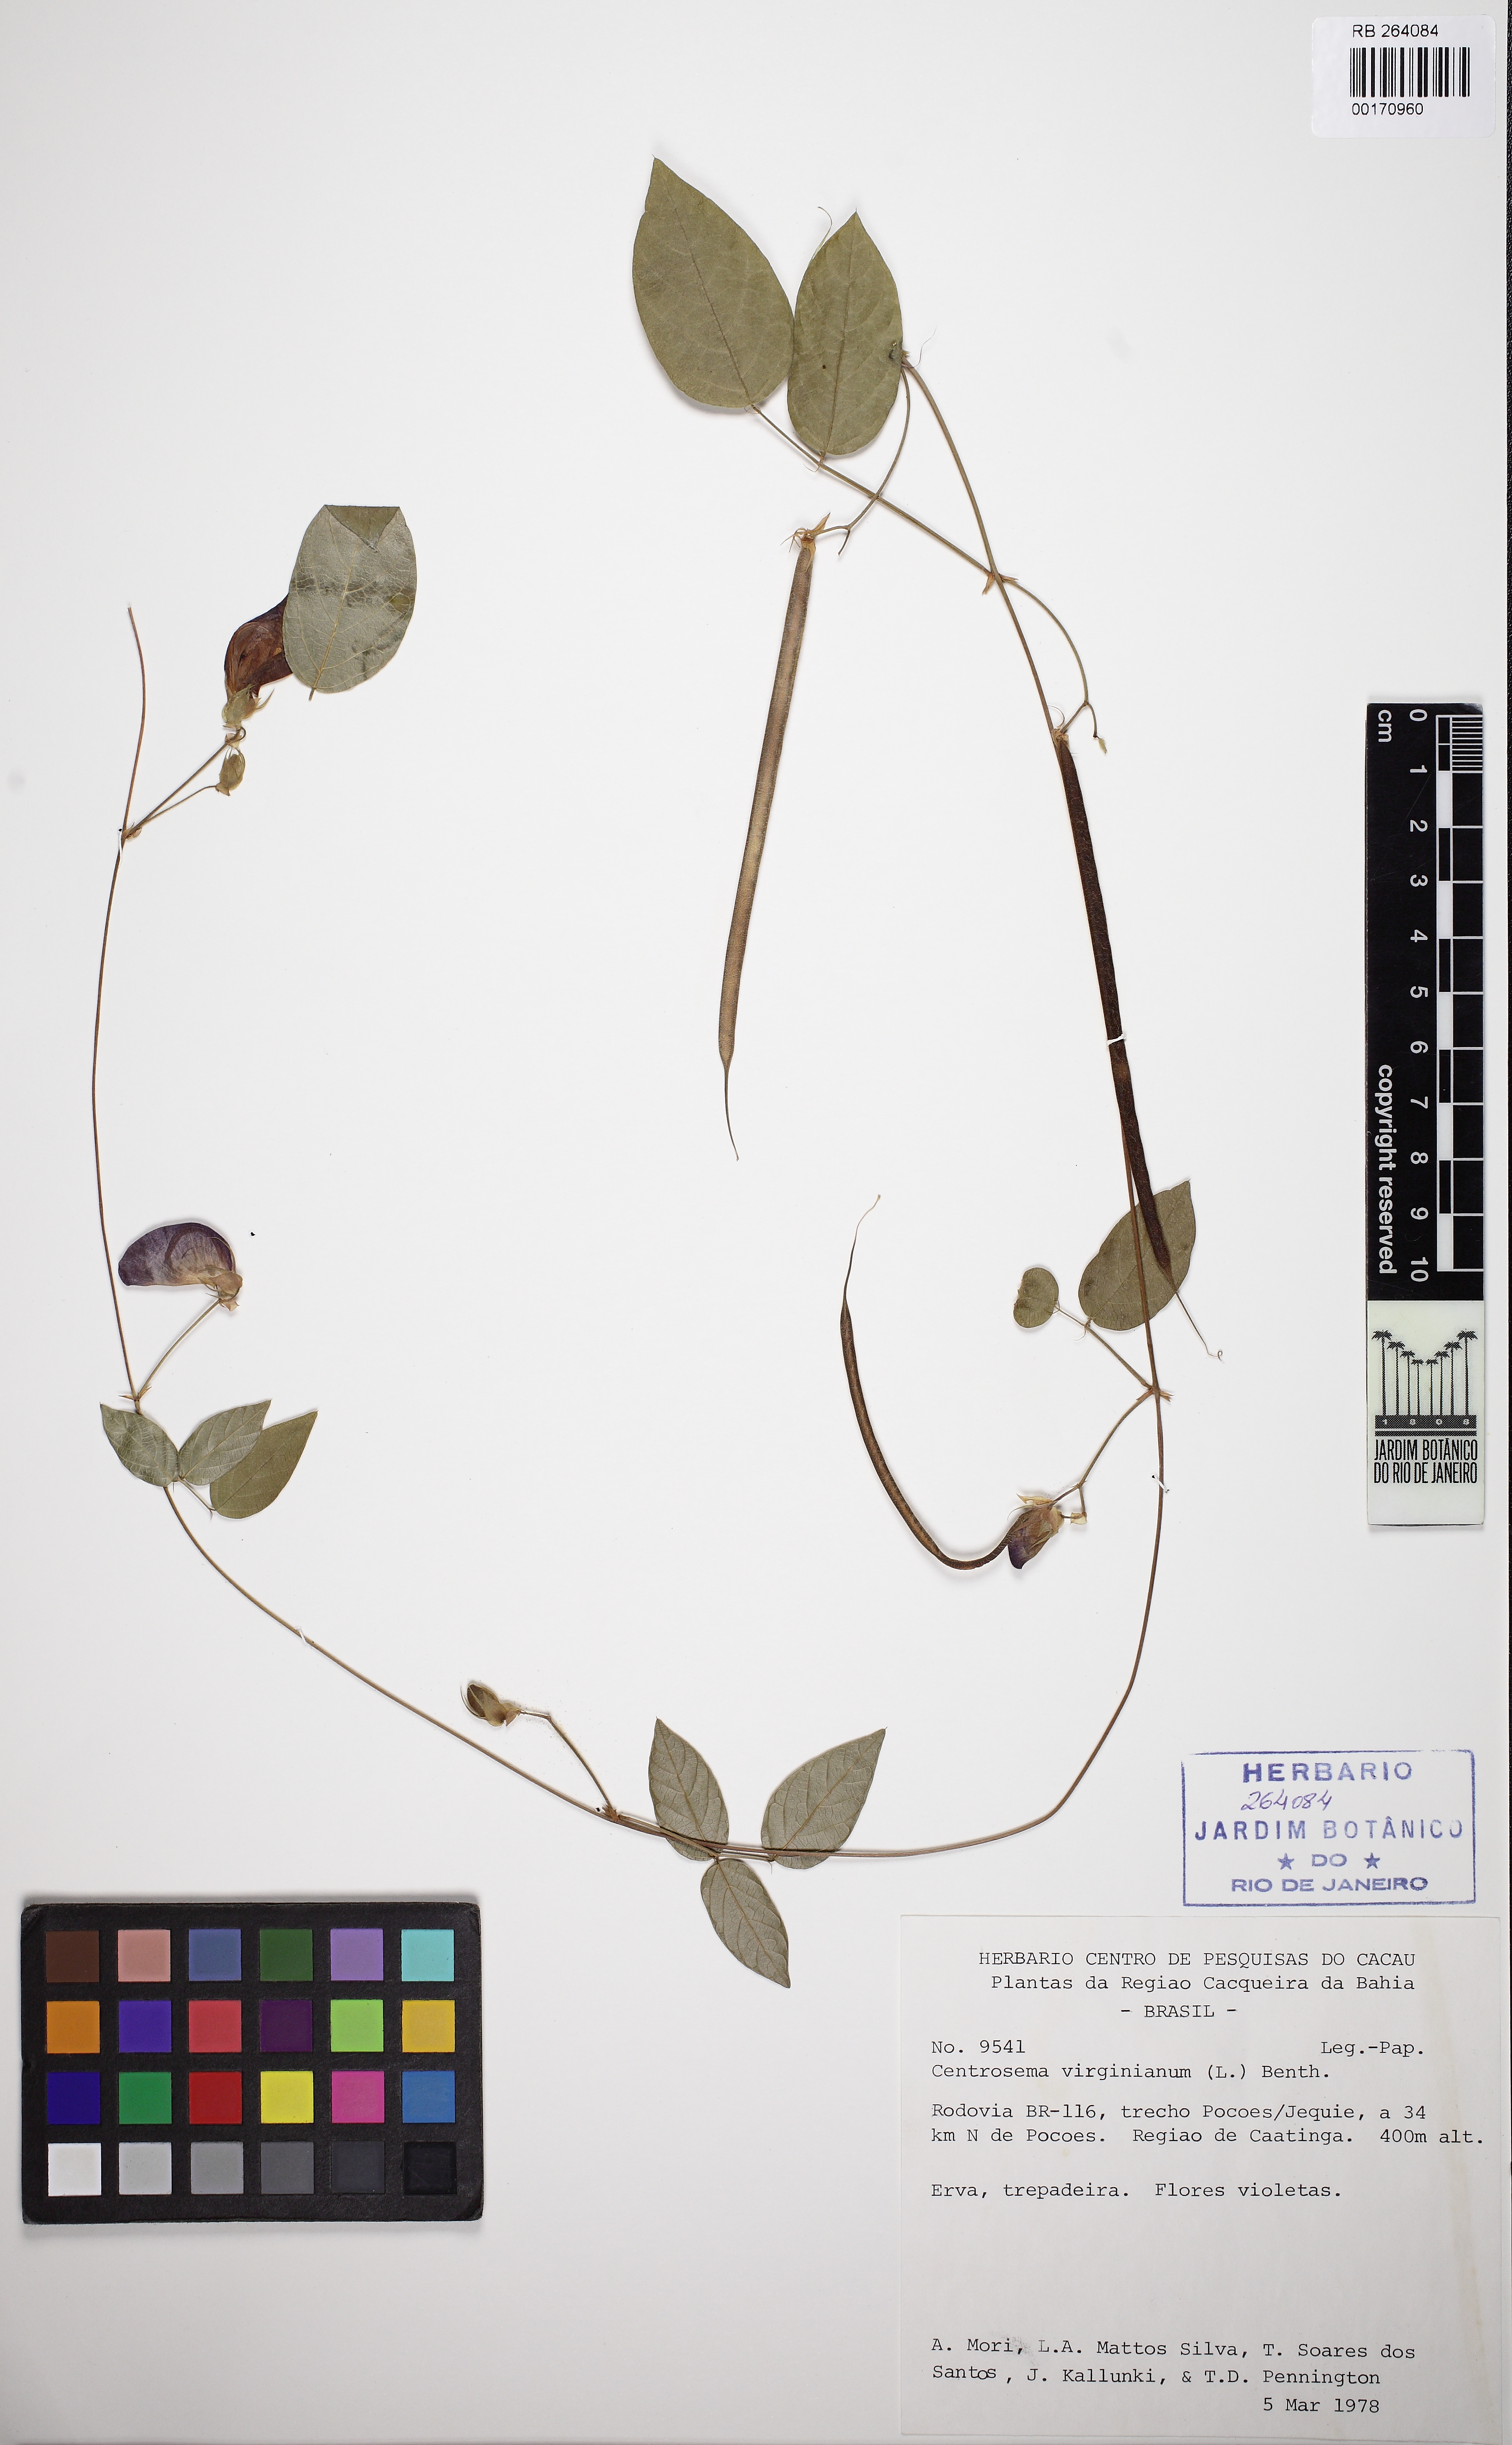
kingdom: Plantae
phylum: Tracheophyta
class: Magnoliopsida
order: Fabales
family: Fabaceae
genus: Centrosema
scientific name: Centrosema virginianum
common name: Butterfly-pea
